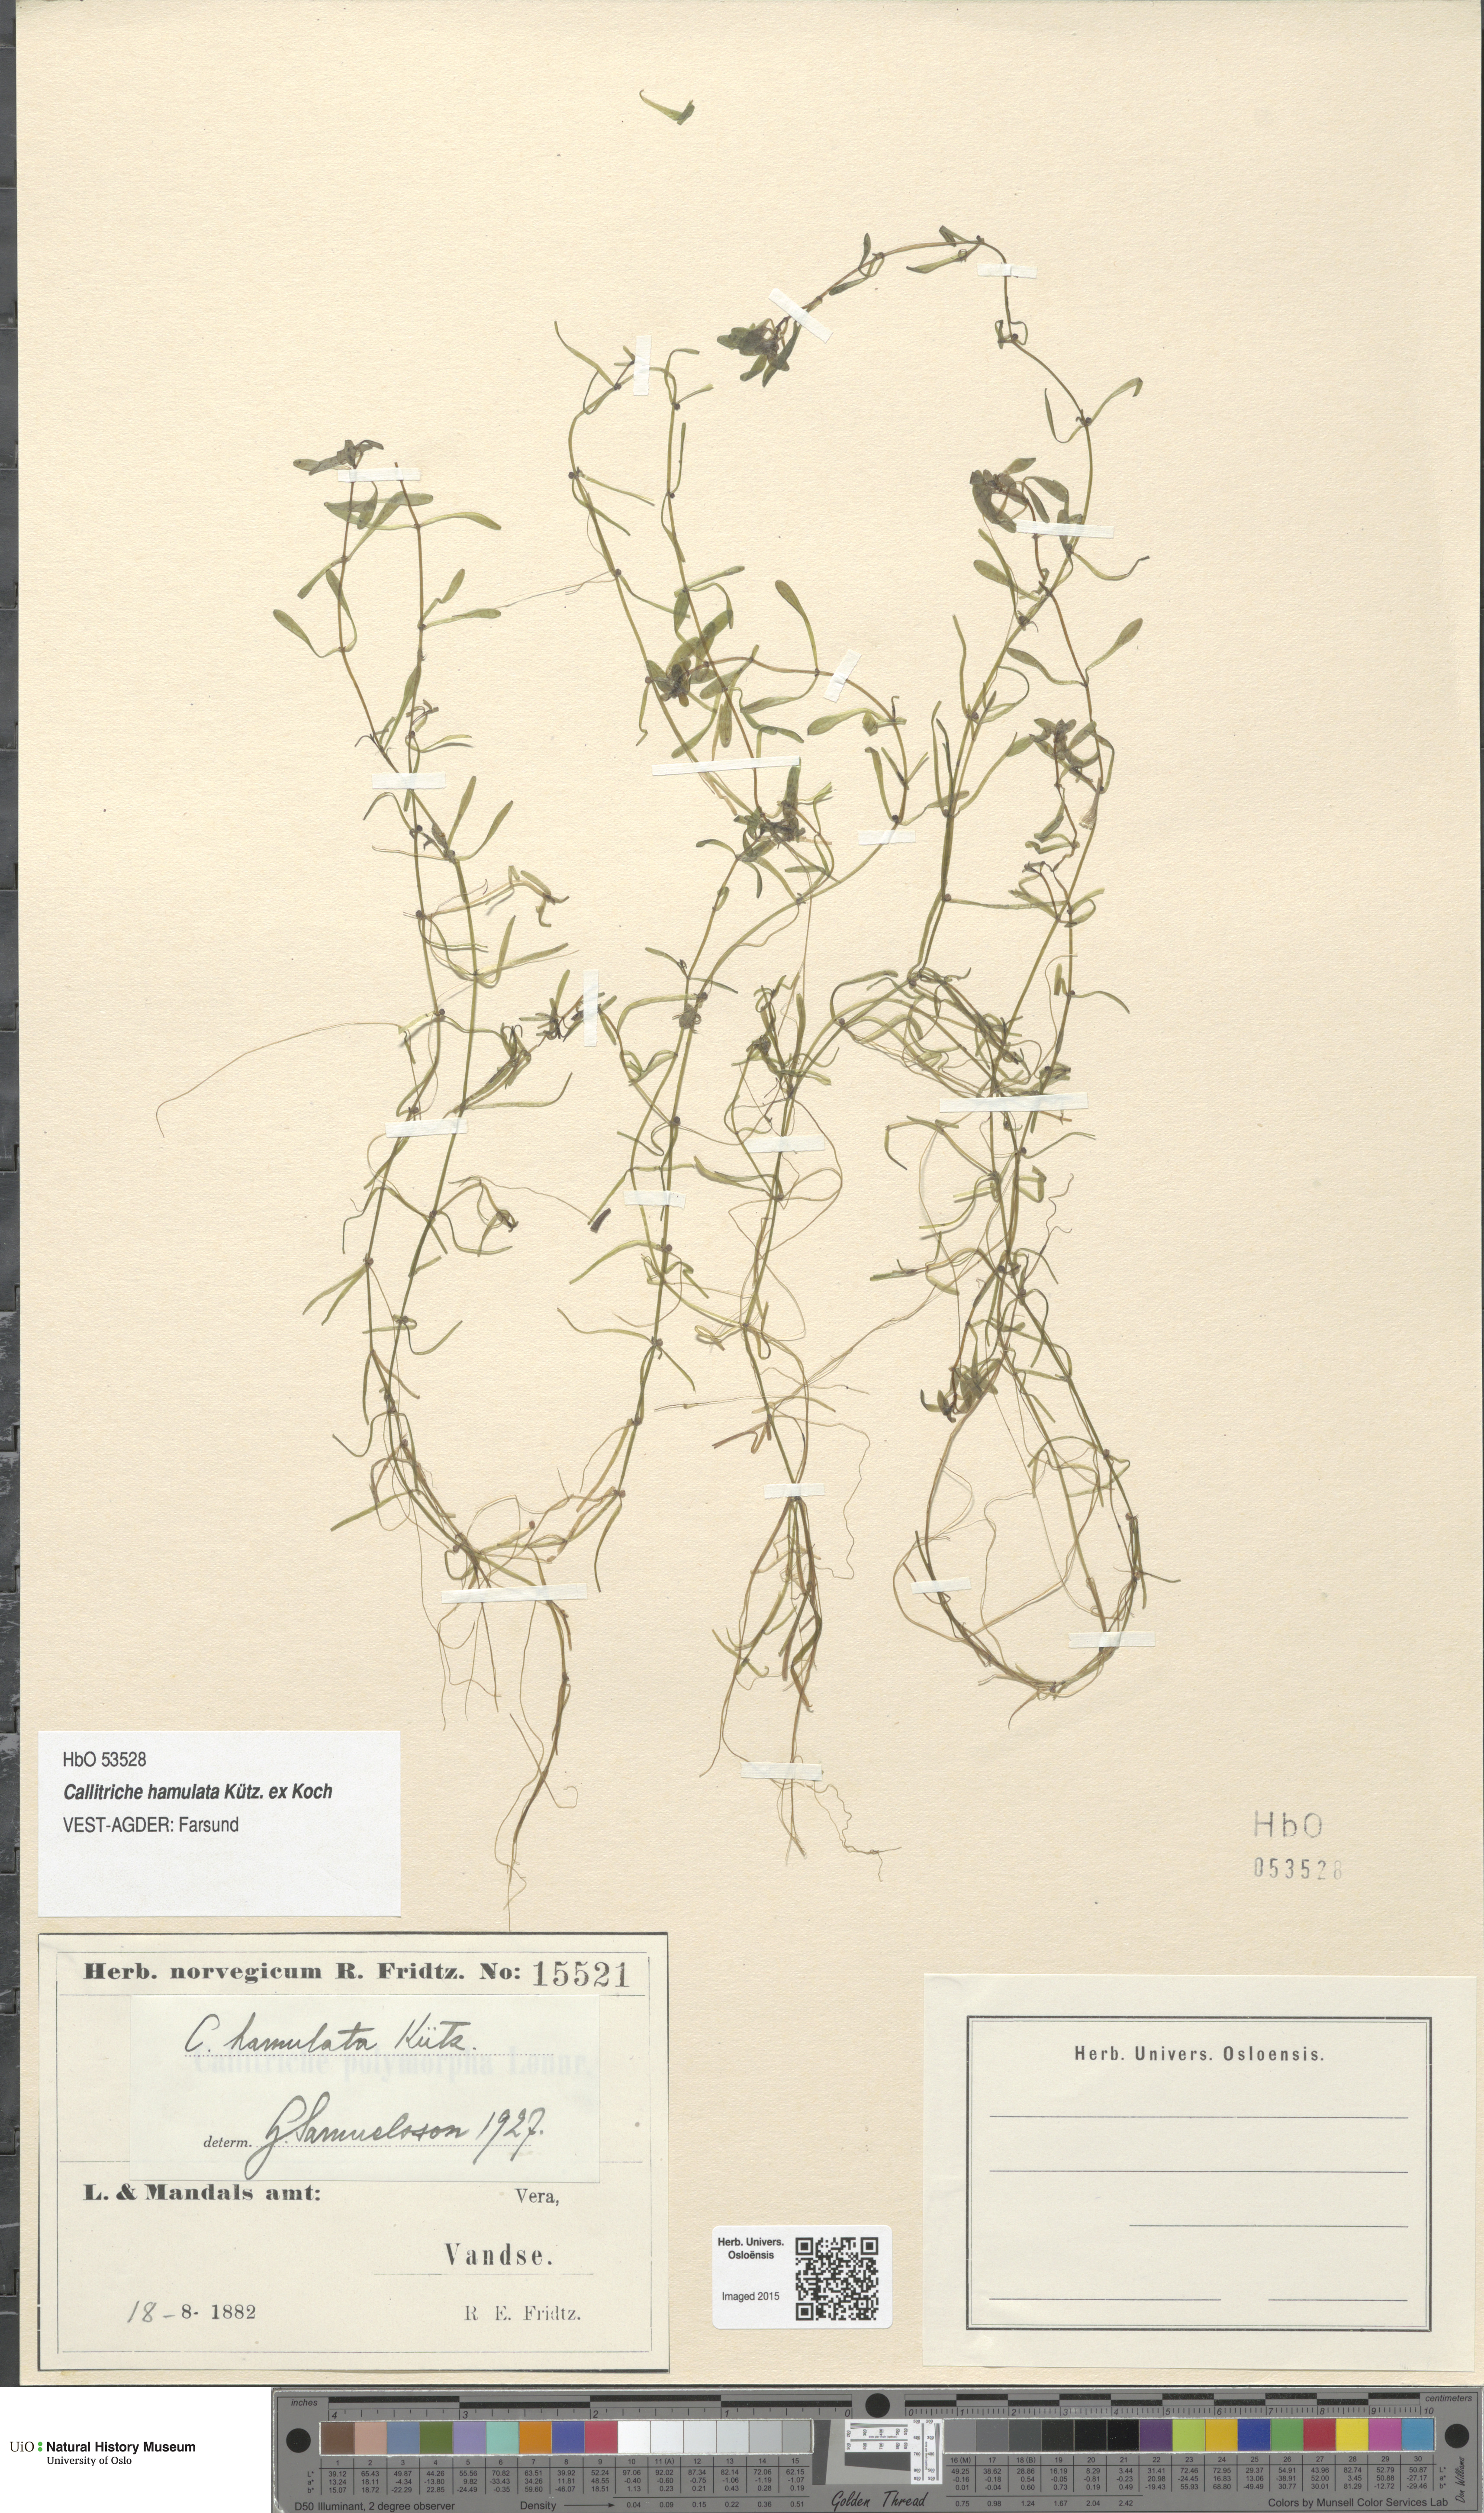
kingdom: Plantae
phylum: Tracheophyta
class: Magnoliopsida
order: Lamiales
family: Plantaginaceae
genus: Callitriche
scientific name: Callitriche hamulata
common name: Intermediate water-starwort
